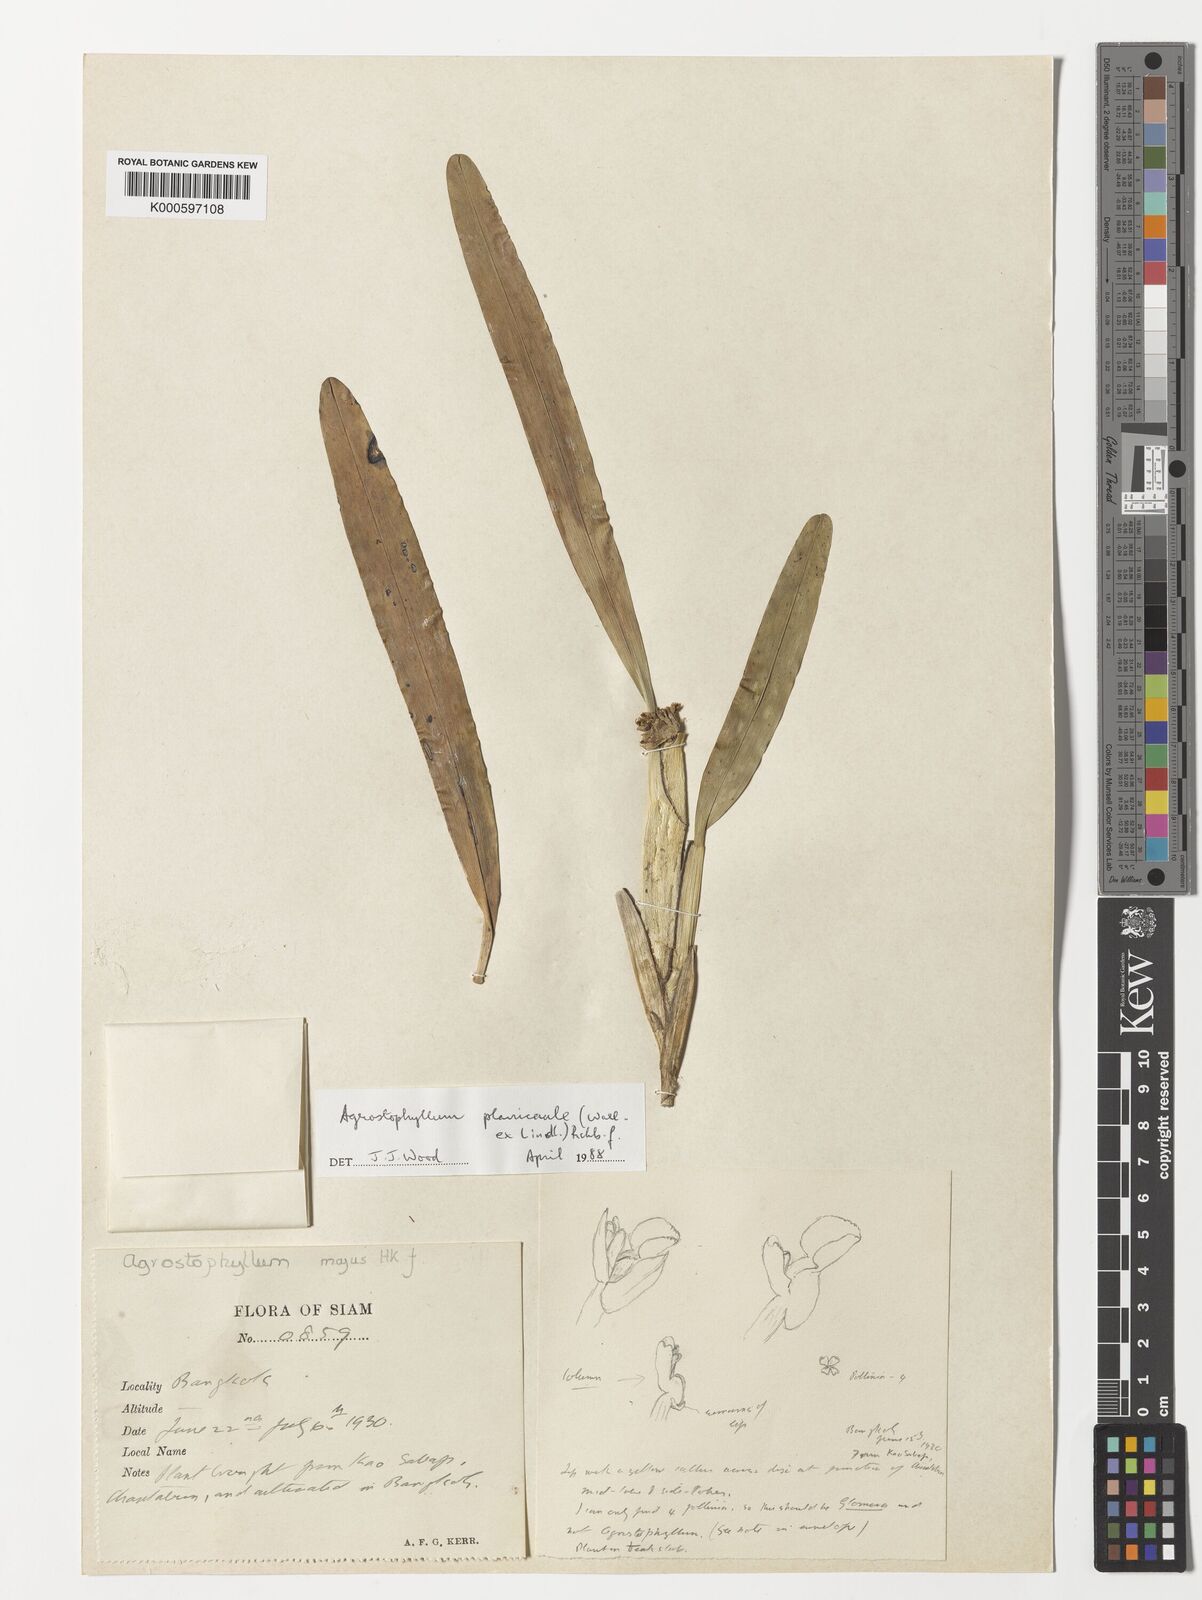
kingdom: Plantae
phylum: Tracheophyta
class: Liliopsida
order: Asparagales
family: Orchidaceae
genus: Agrostophyllum
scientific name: Agrostophyllum planicaule
